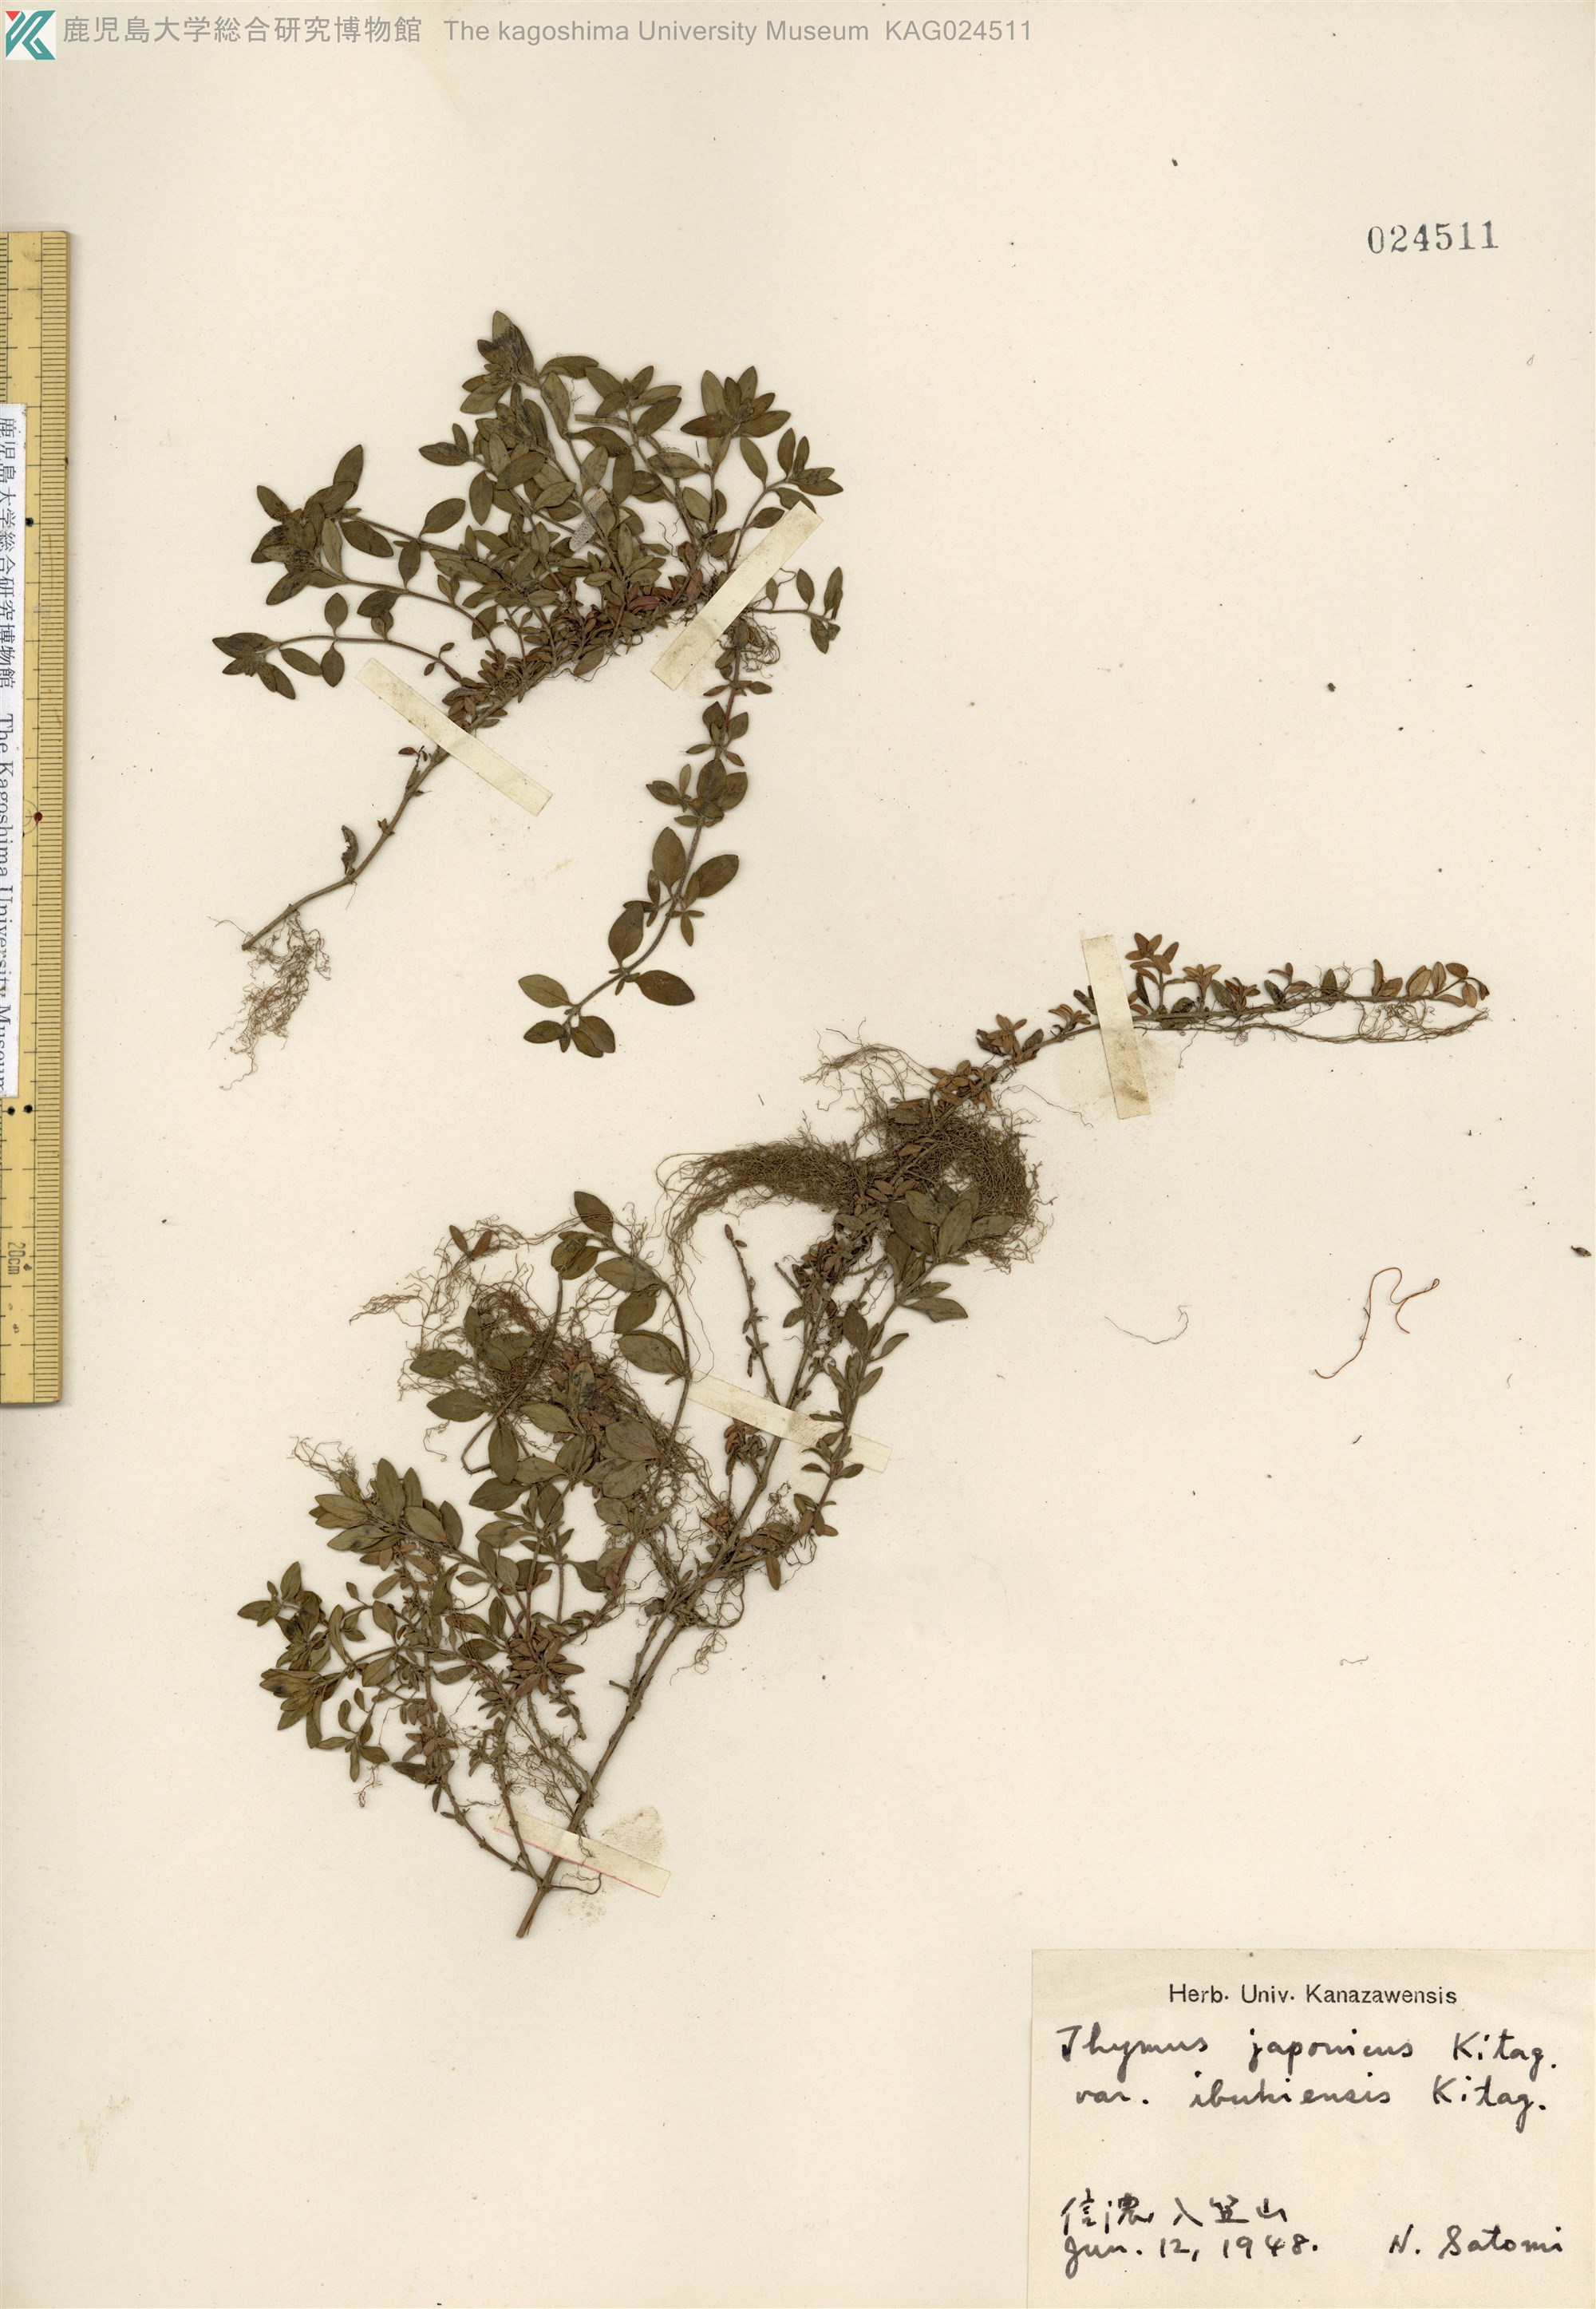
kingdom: Plantae
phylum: Tracheophyta
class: Magnoliopsida
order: Lamiales
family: Lamiaceae
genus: Thymus
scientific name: Thymus quinquecostatus
